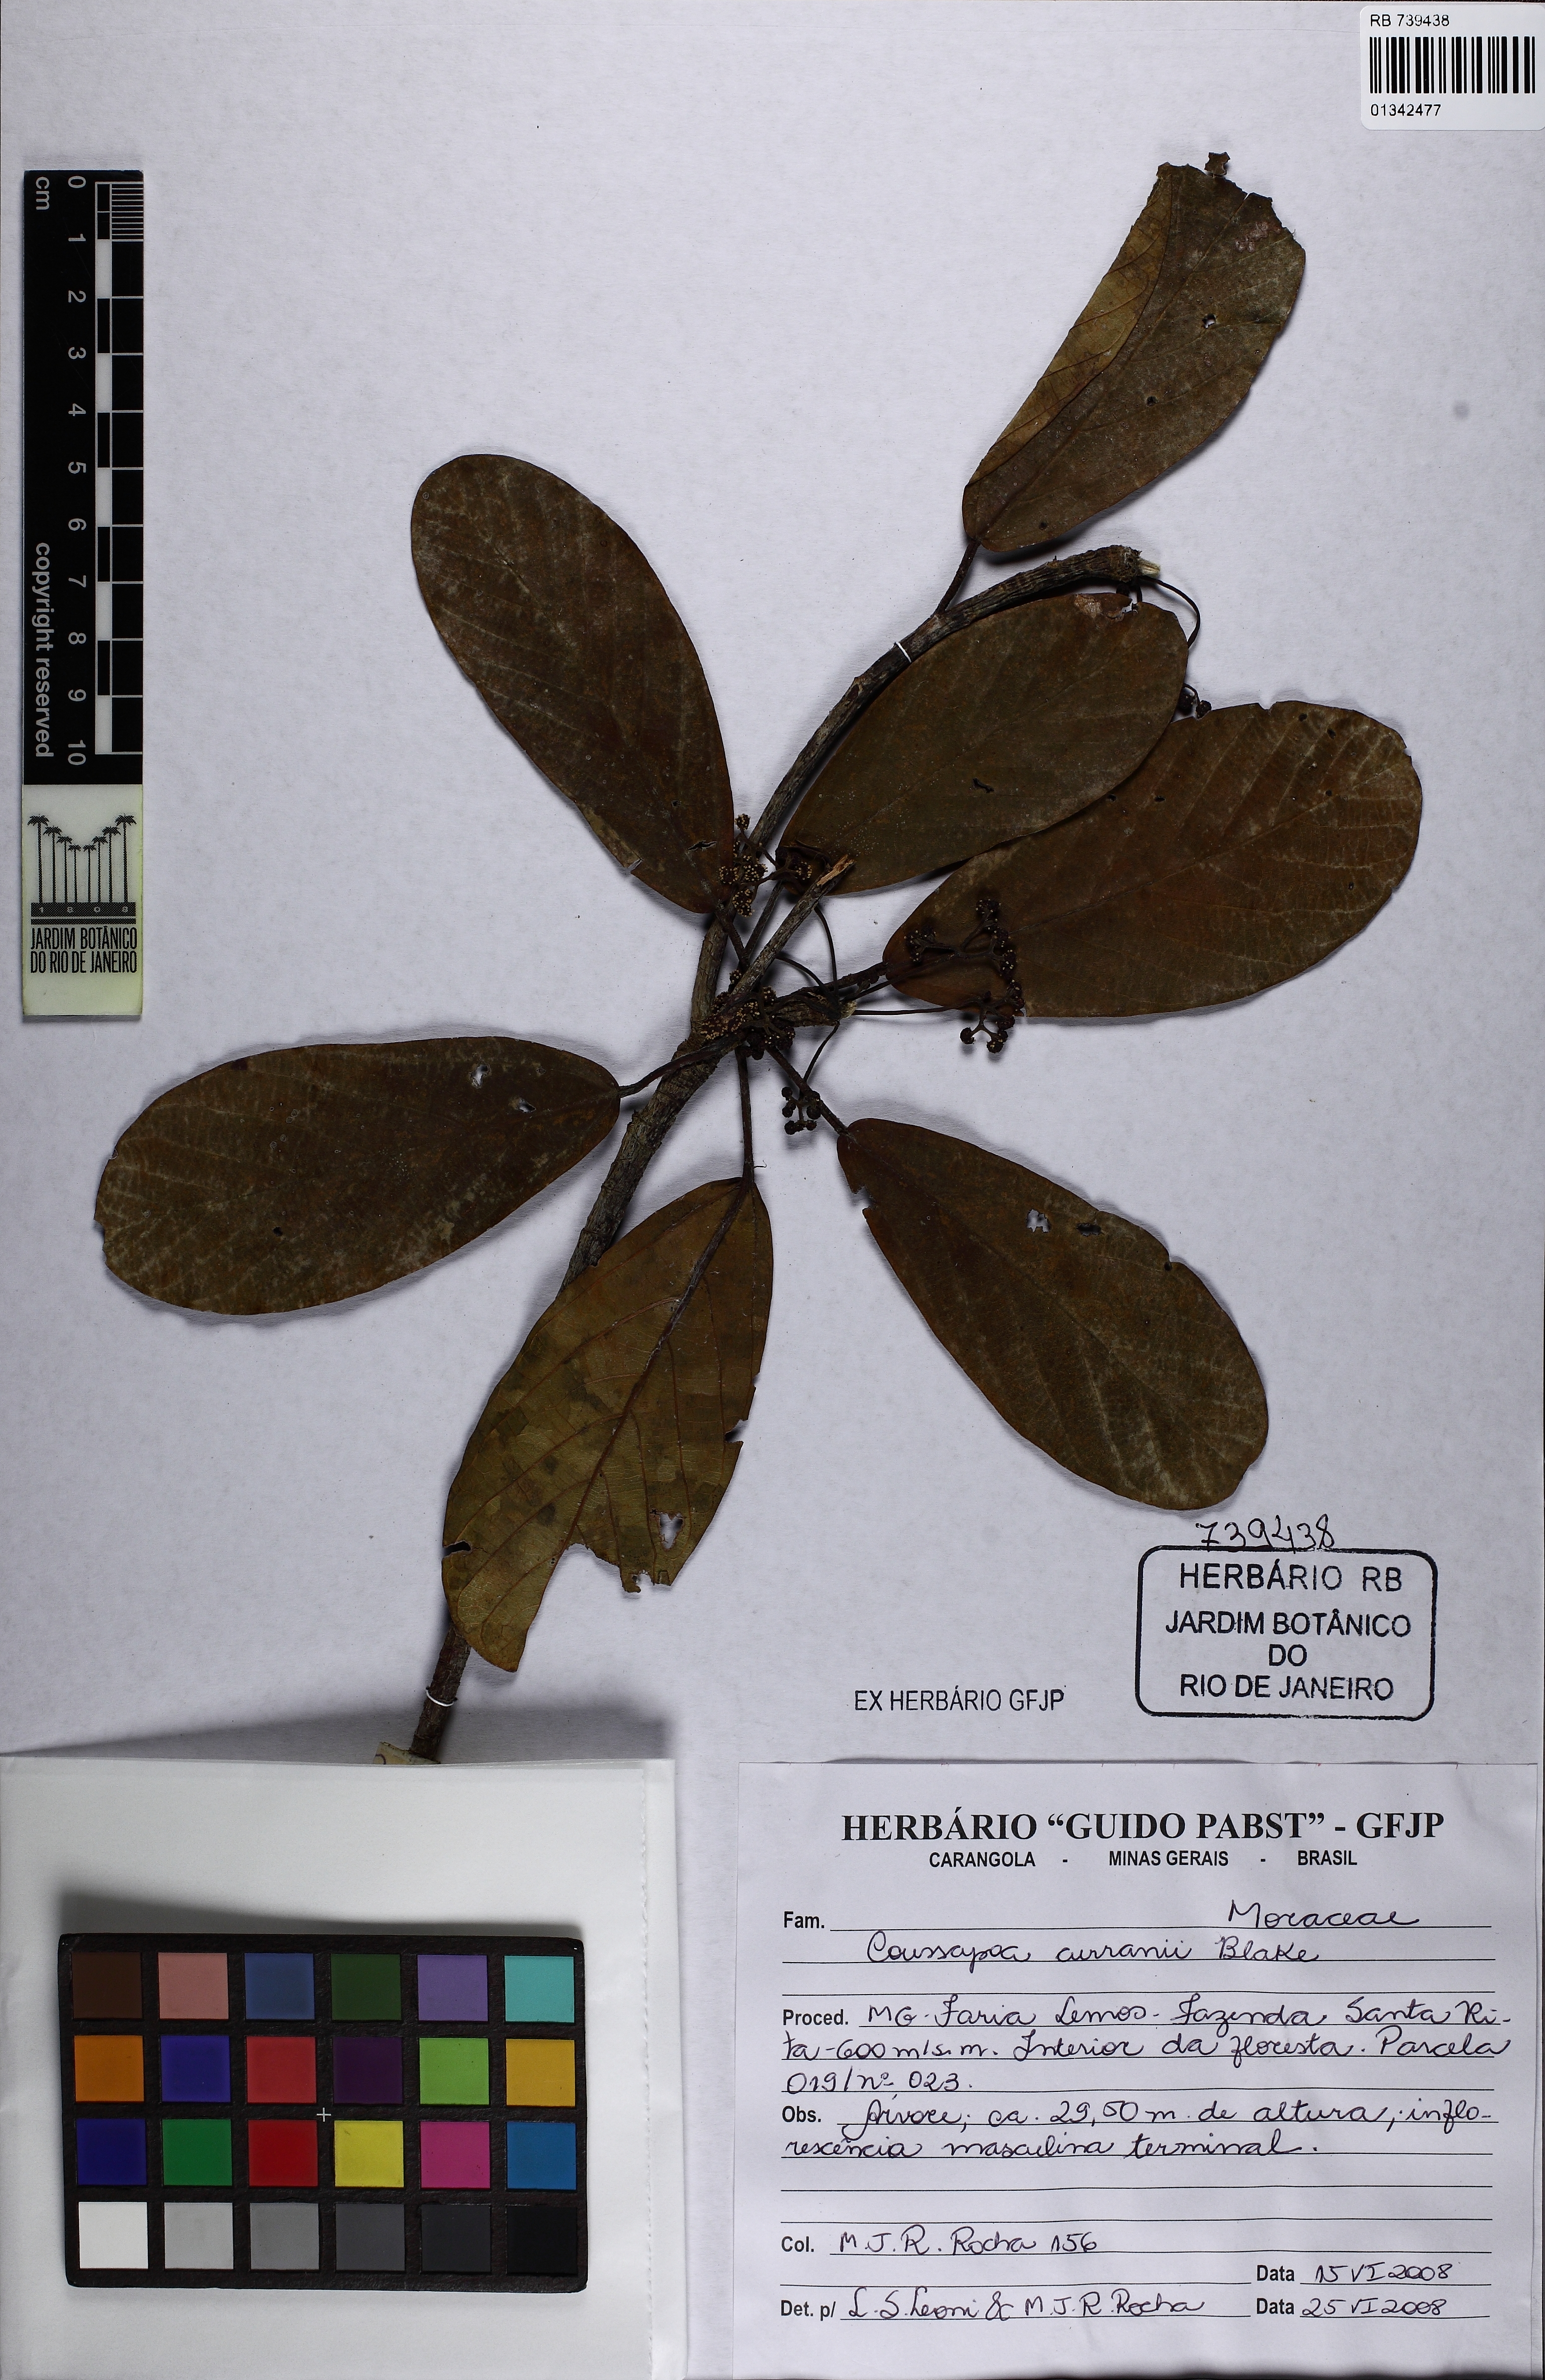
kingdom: Plantae
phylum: Tracheophyta
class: Magnoliopsida
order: Rosales
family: Urticaceae
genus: Coussapoa
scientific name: Coussapoa curranii
